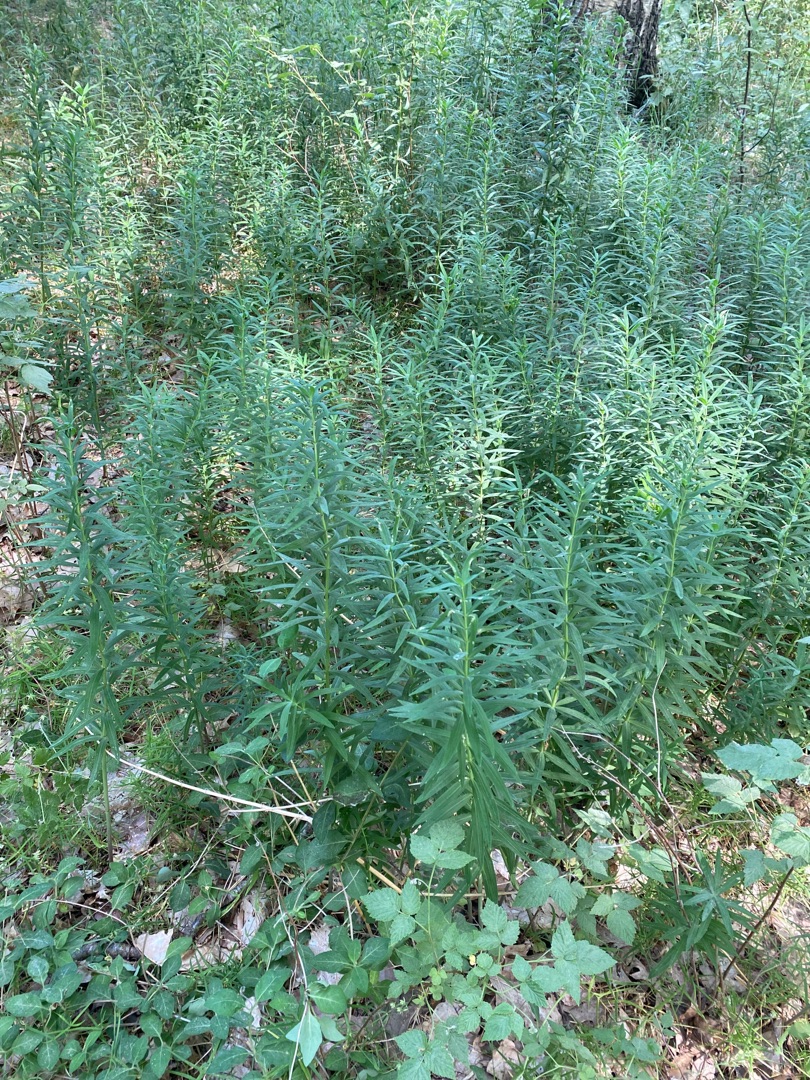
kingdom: Plantae
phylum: Tracheophyta
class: Liliopsida
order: Asparagales
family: Asparagaceae
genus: Polygonatum
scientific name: Polygonatum verticillatum
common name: Krans-konval
